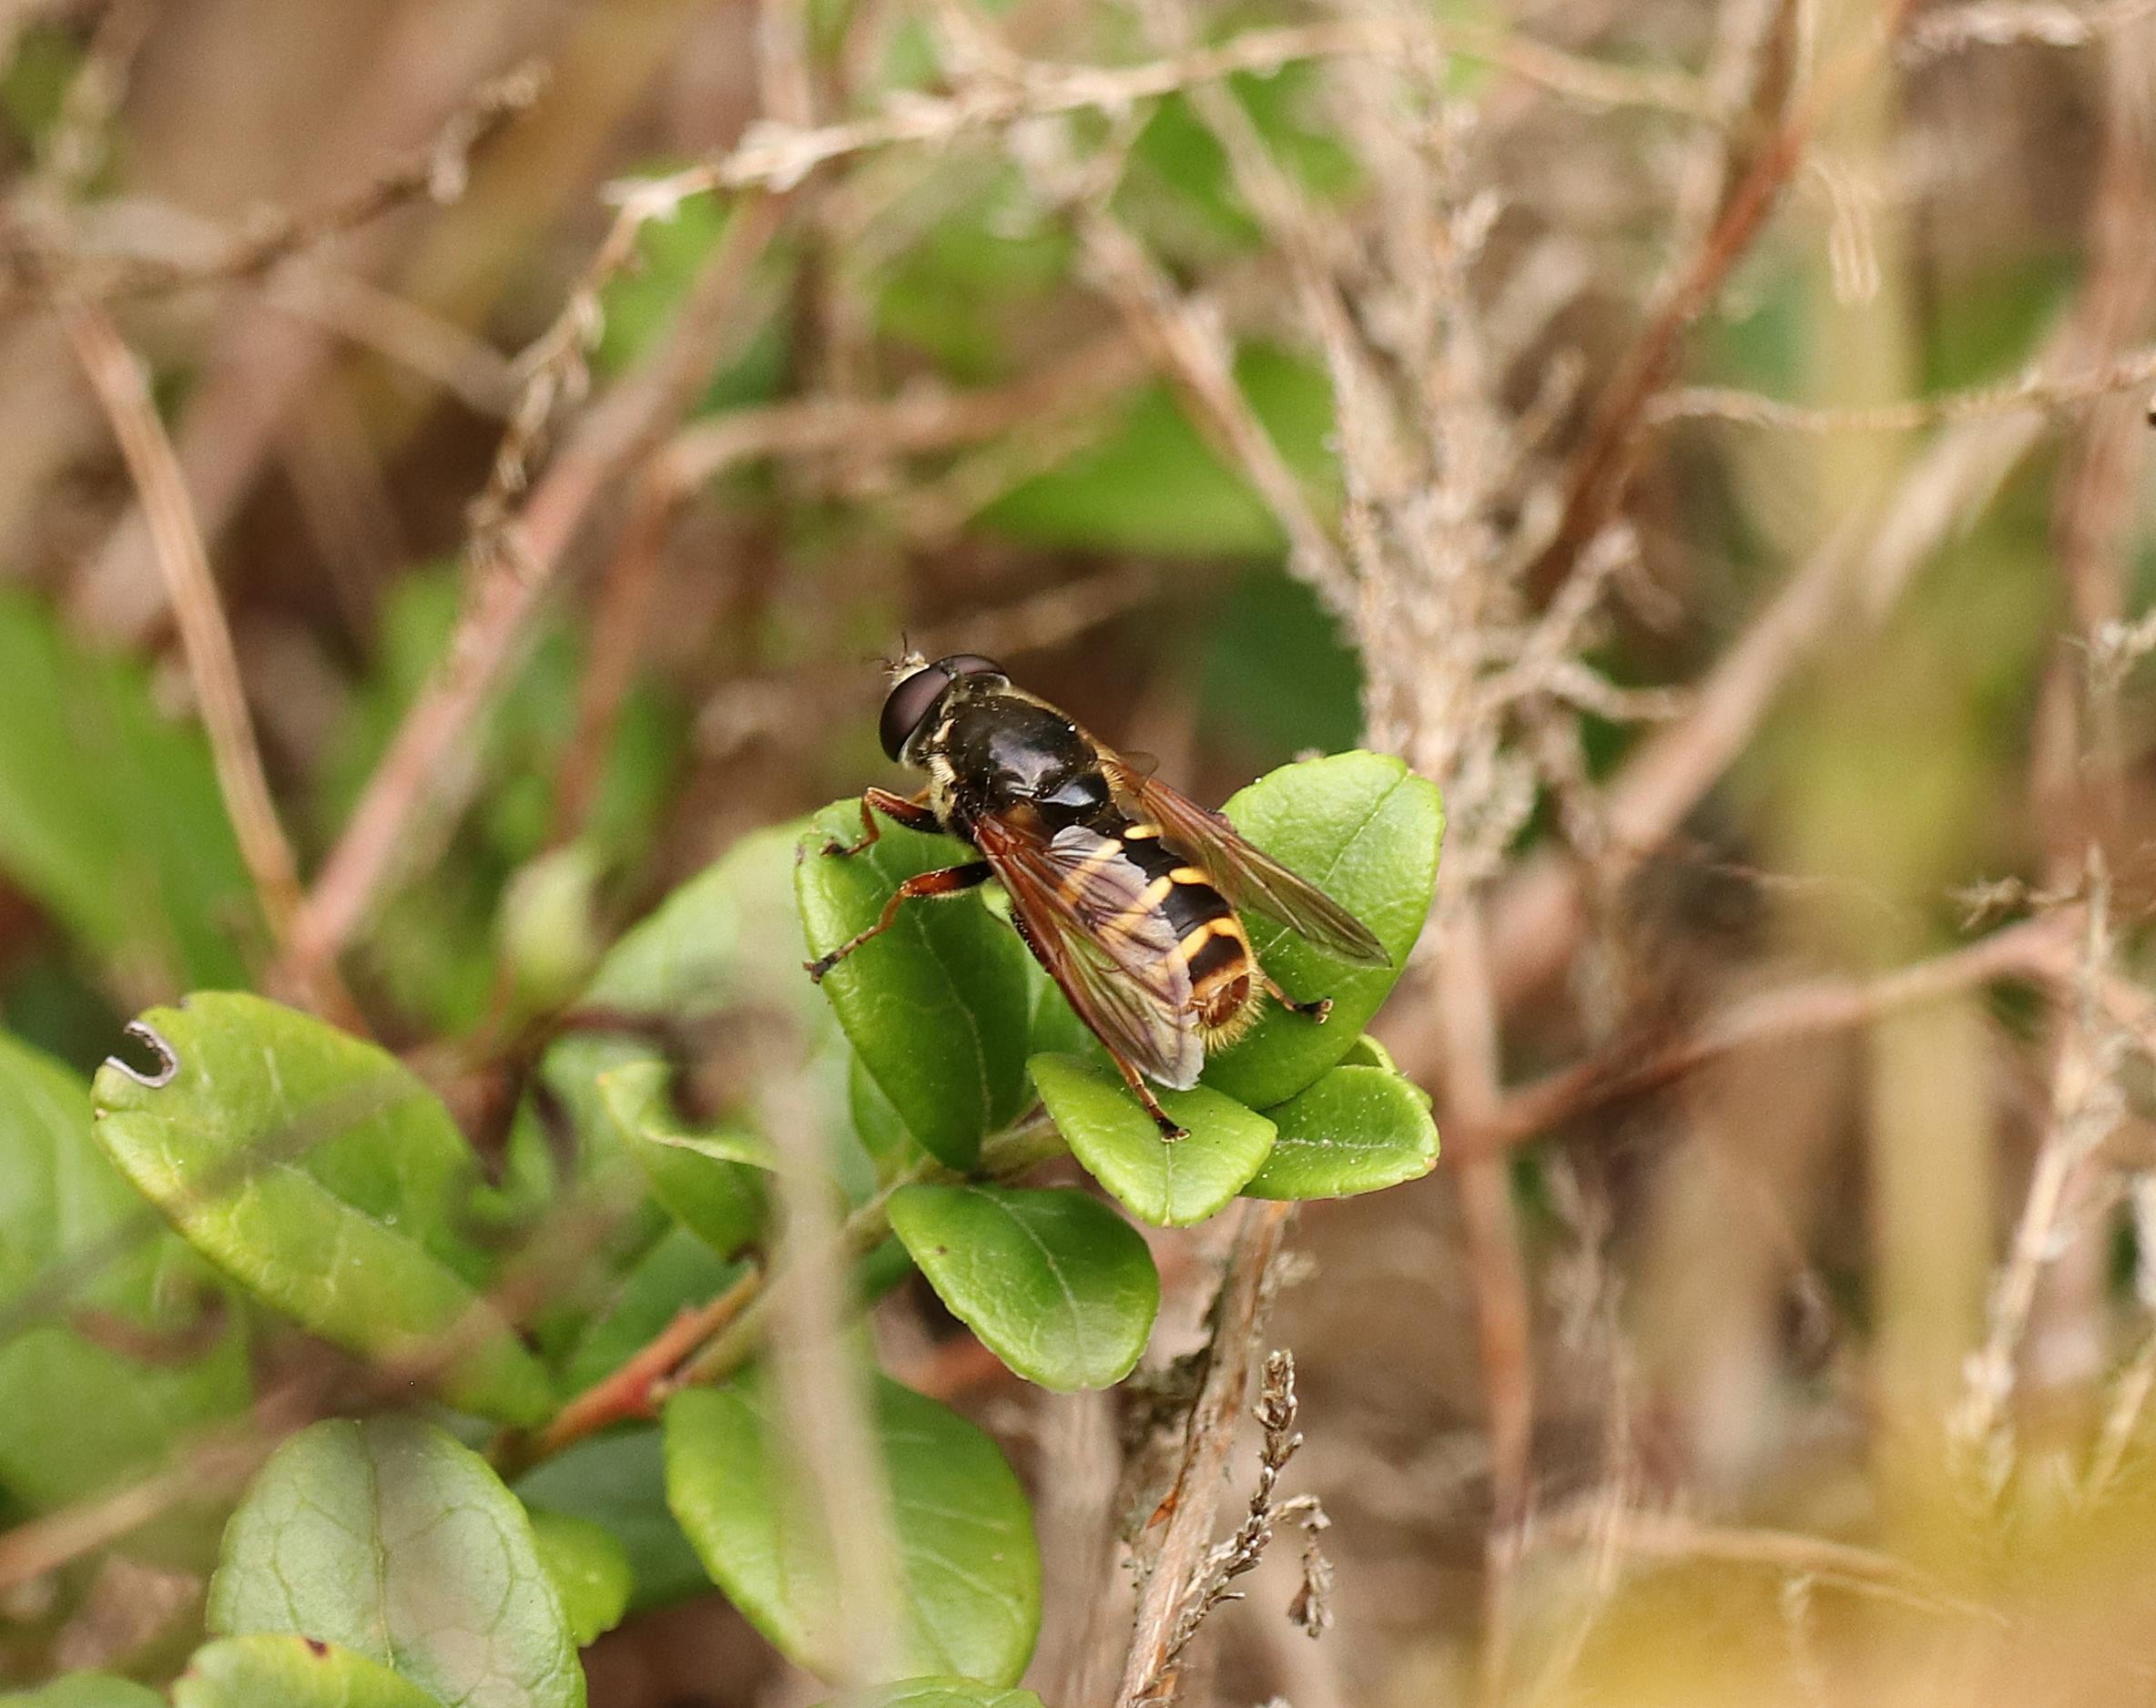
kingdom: Animalia
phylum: Arthropoda
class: Insecta
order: Diptera
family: Syrphidae
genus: Sericomyia
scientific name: Sericomyia silentis
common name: Tørve-silkesvirreflue
